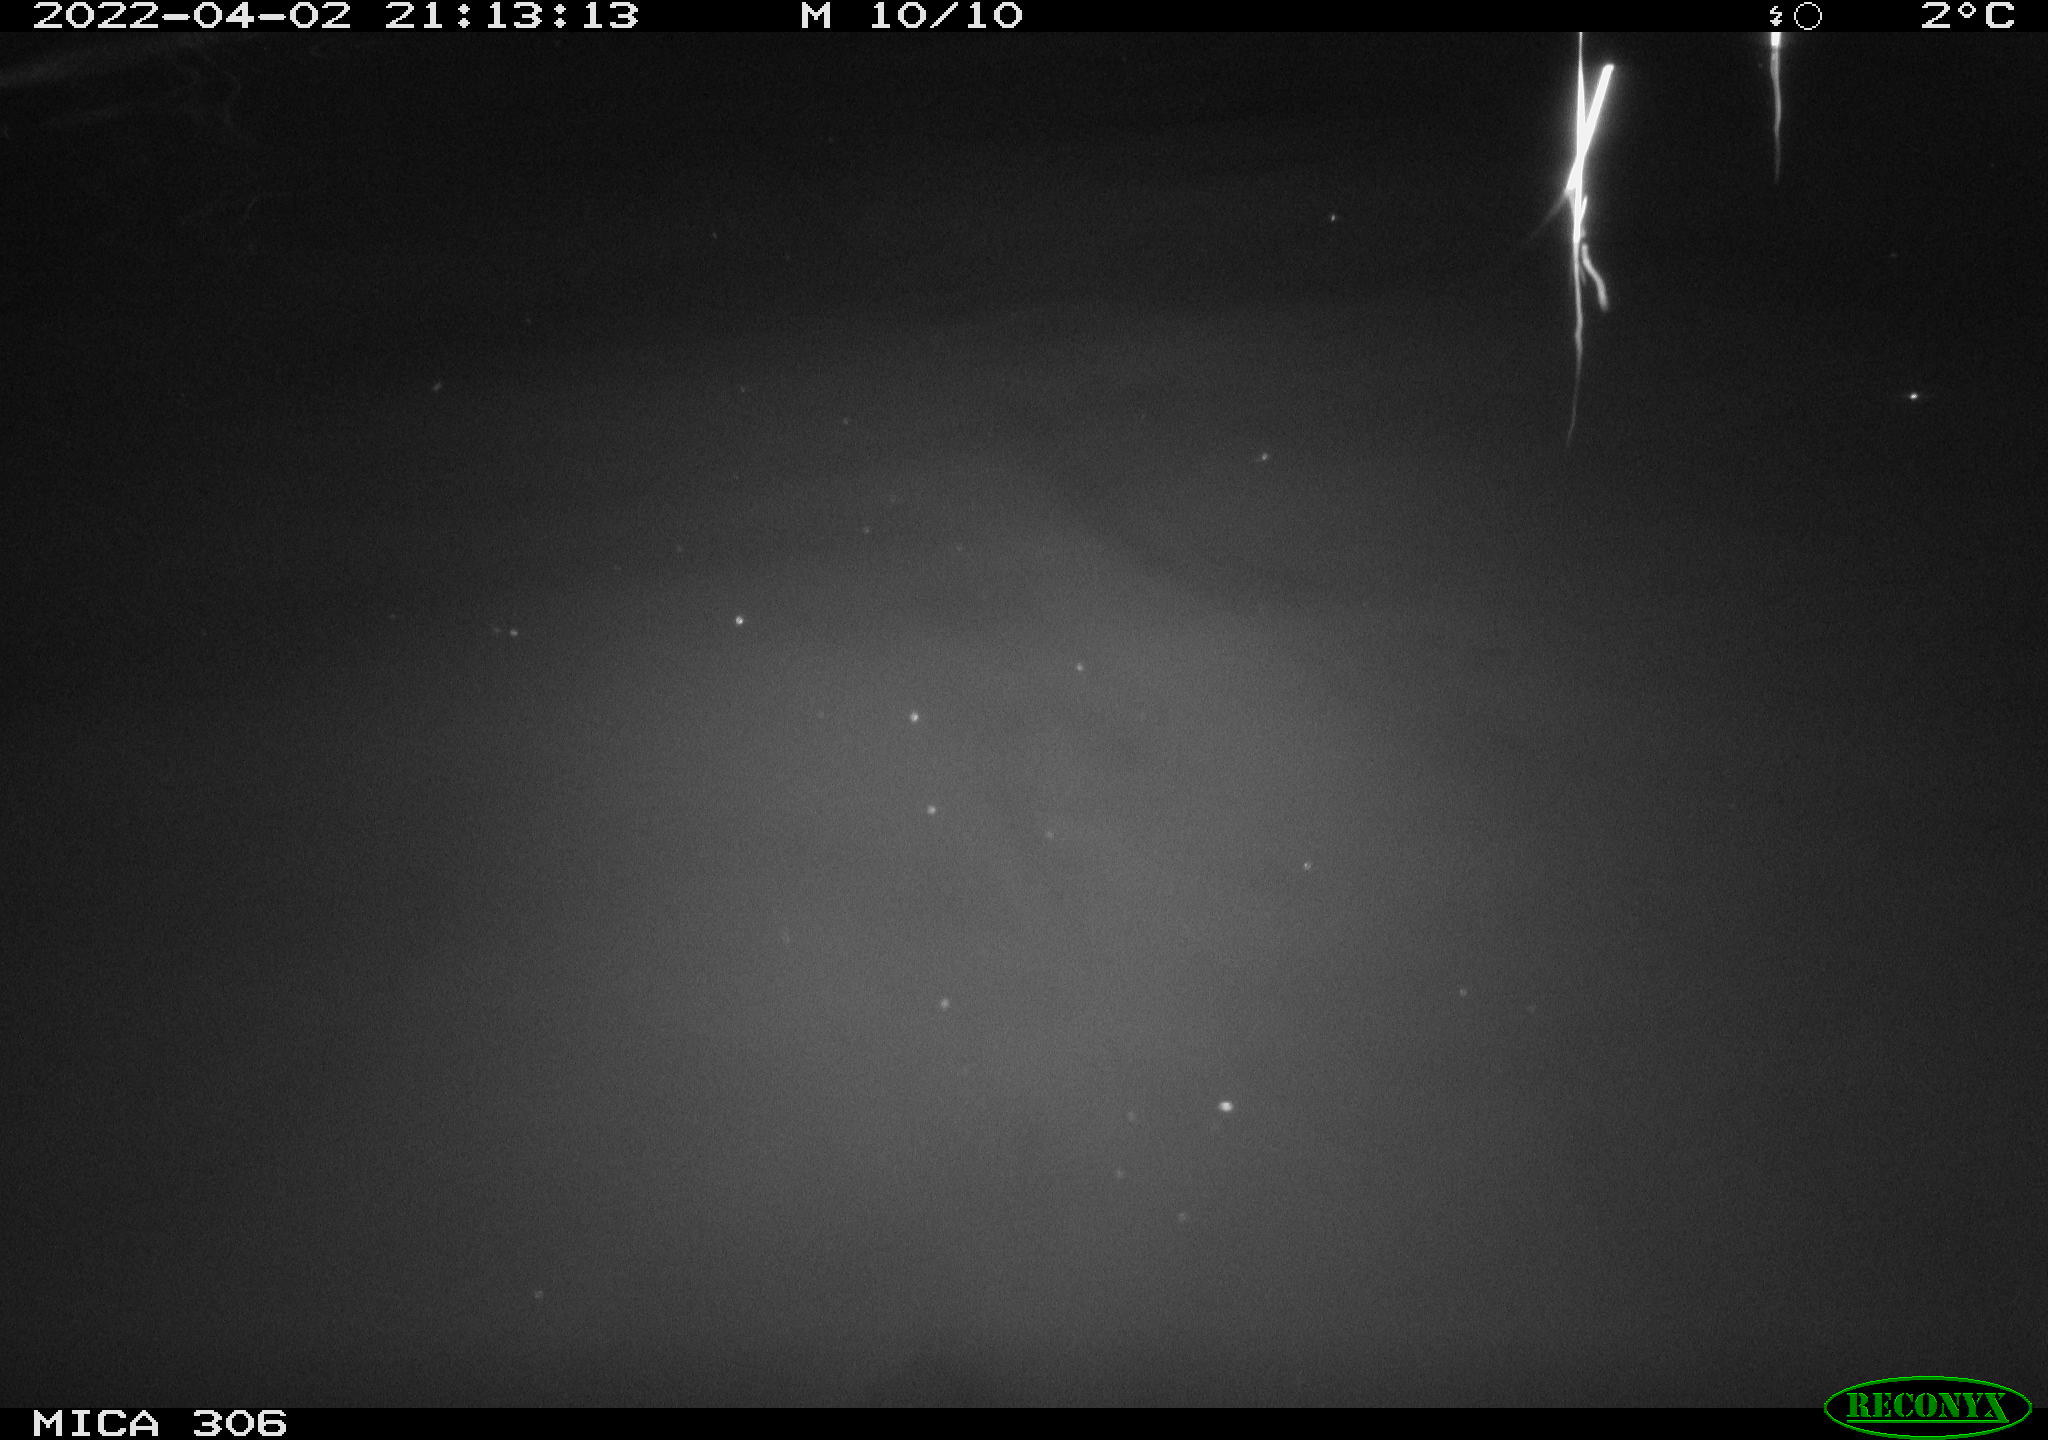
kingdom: Animalia
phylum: Chordata
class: Mammalia
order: Rodentia
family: Cricetidae
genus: Ondatra
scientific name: Ondatra zibethicus
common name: Muskrat
